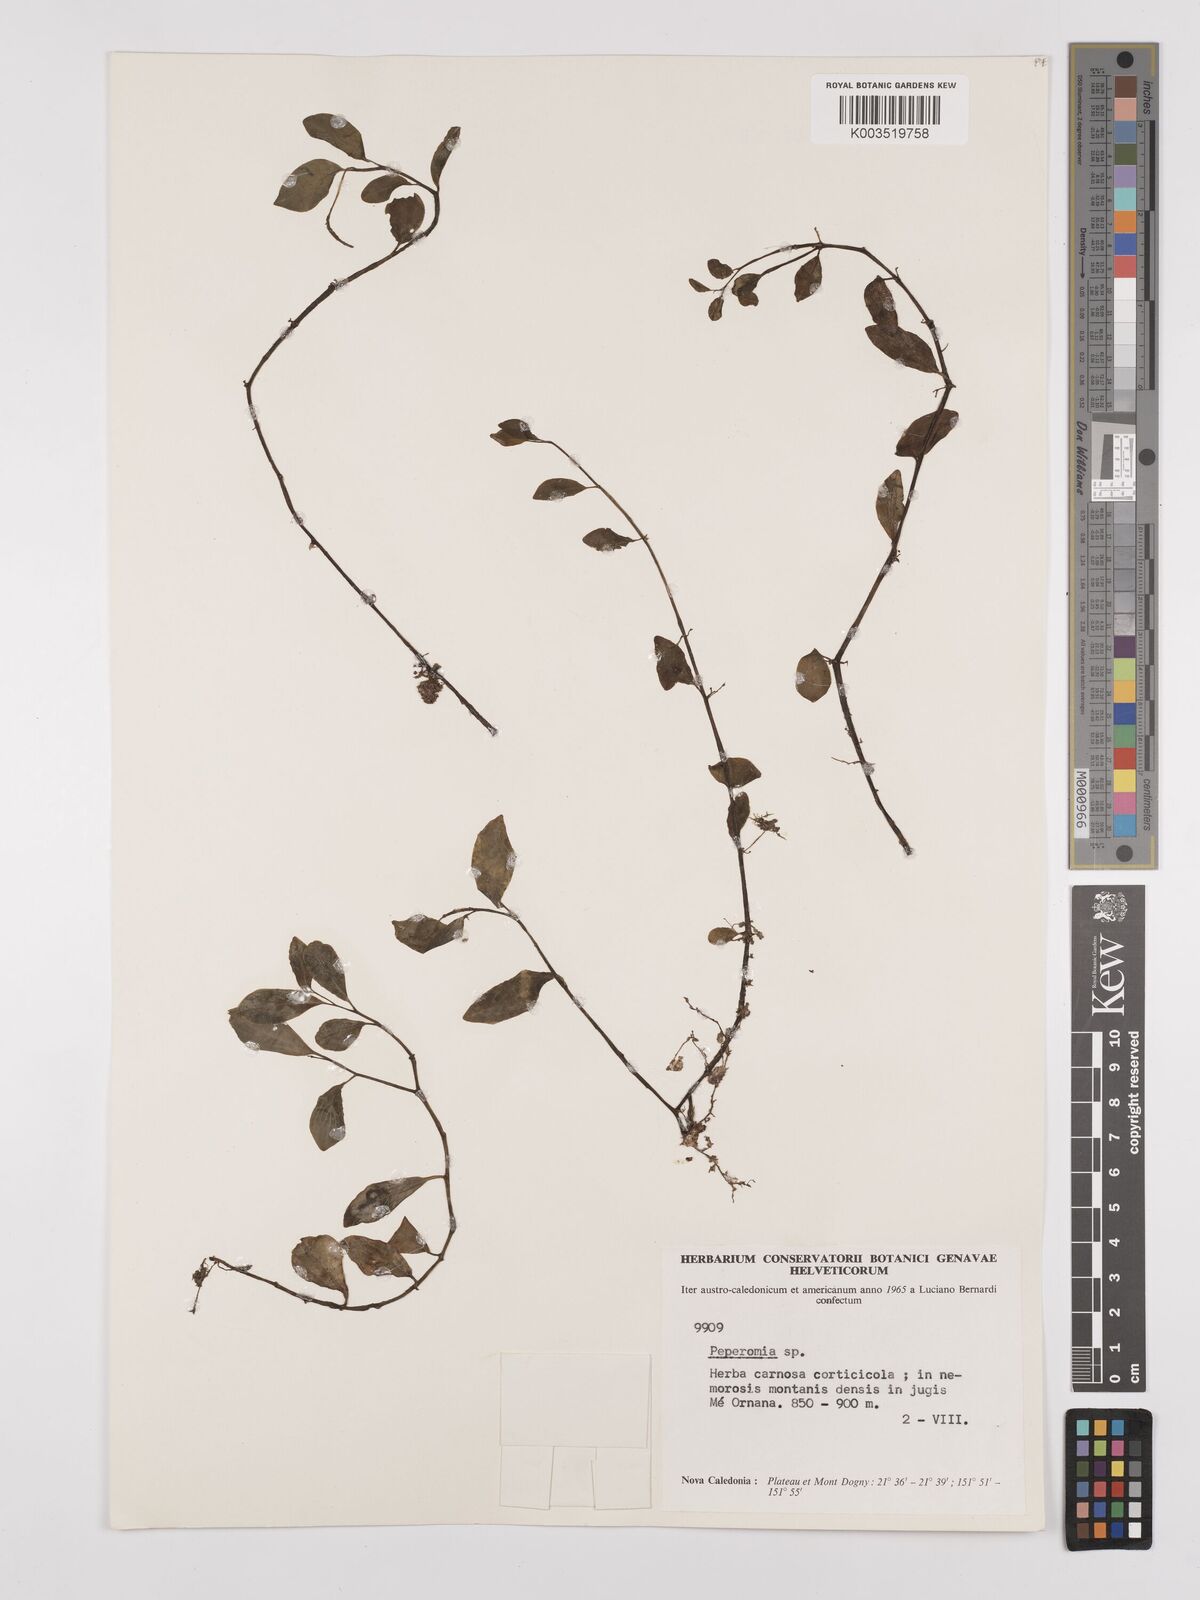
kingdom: Plantae
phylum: Tracheophyta
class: Magnoliopsida
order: Piperales
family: Piperaceae
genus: Peperomia
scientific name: Peperomia
